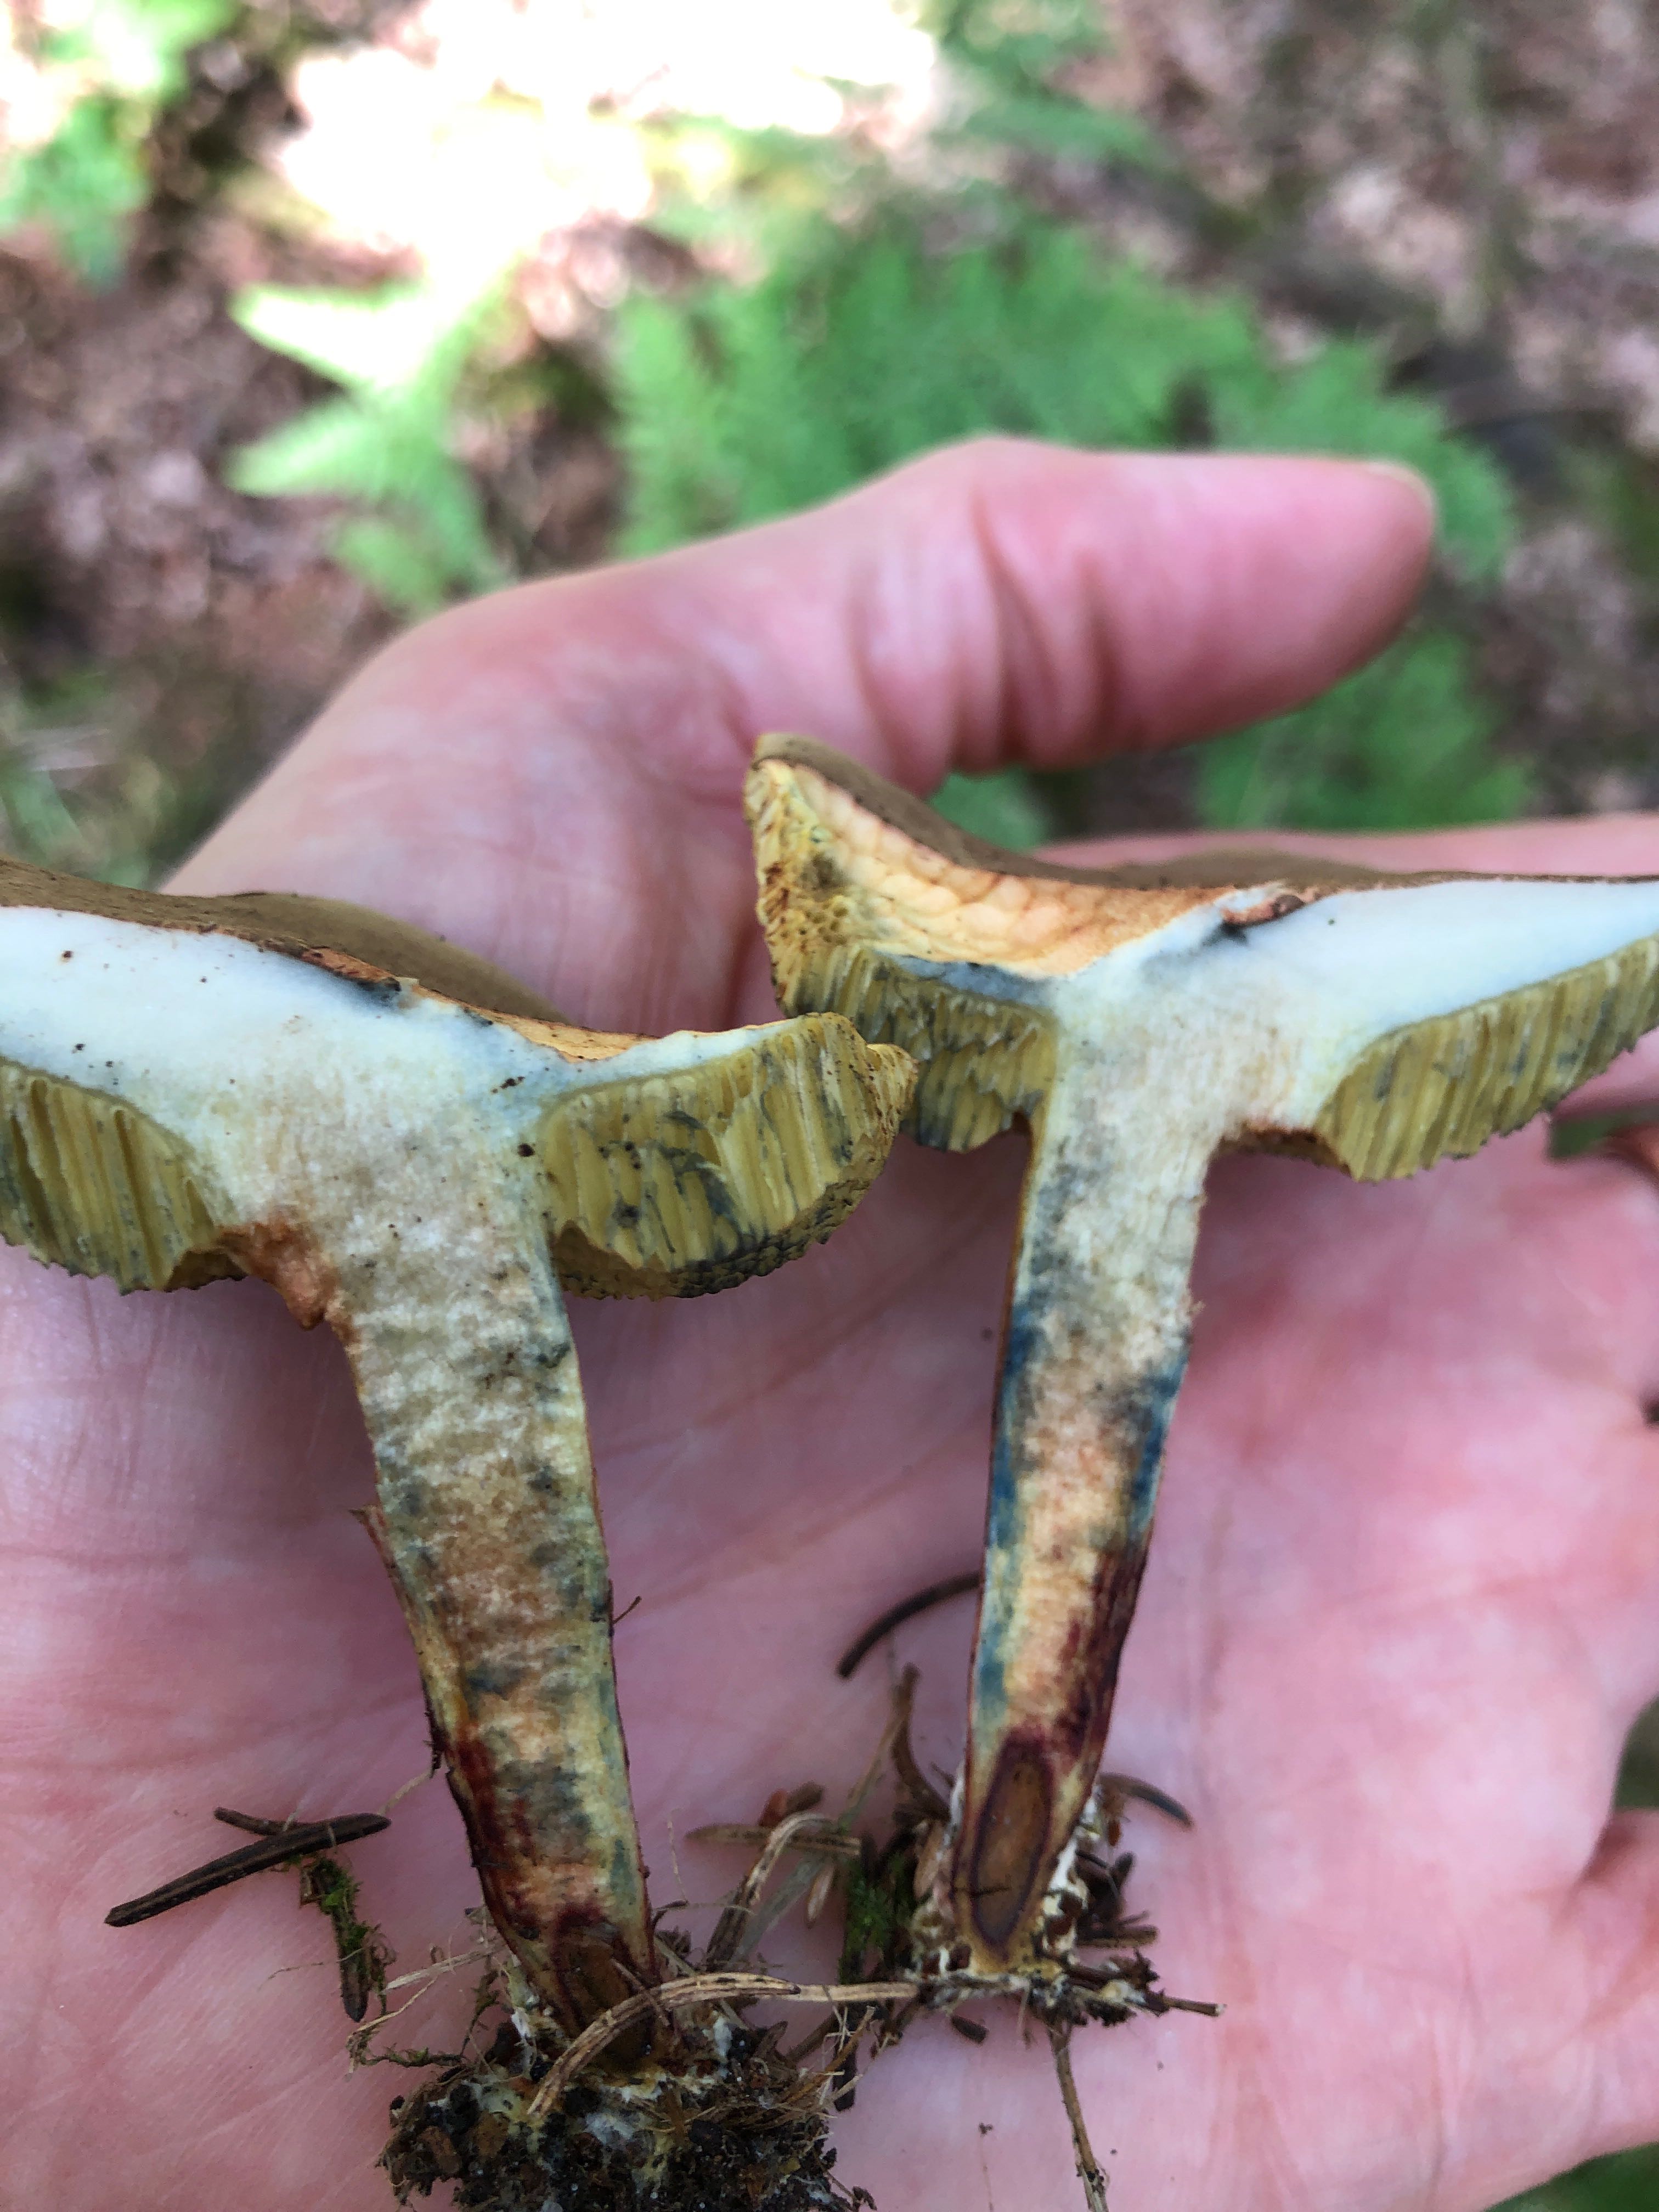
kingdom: Fungi
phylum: Basidiomycota
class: Agaricomycetes
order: Boletales
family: Boletaceae
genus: Xerocomellus
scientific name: Xerocomellus cisalpinus
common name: finsprukken rørhat
